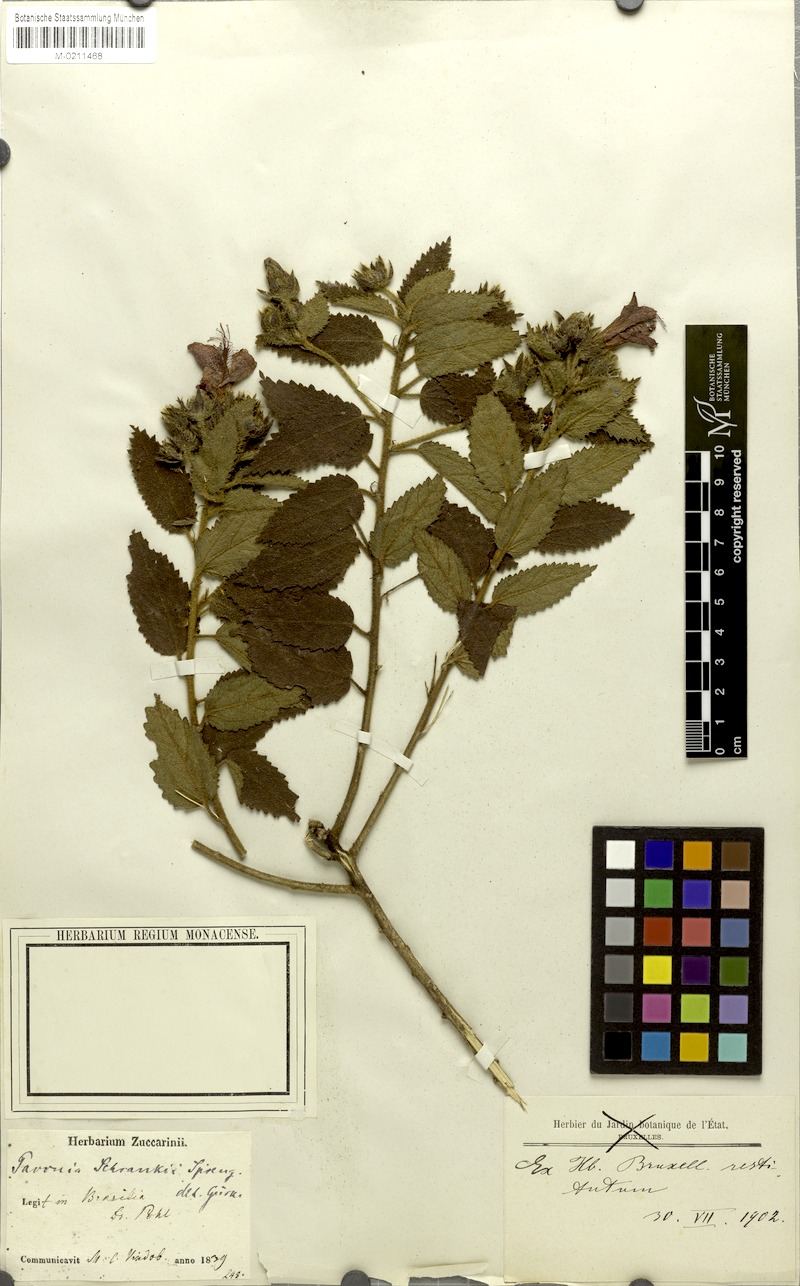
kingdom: Plantae
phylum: Tracheophyta
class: Magnoliopsida
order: Malvales
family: Malvaceae
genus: Pavonia
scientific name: Pavonia schrankii
